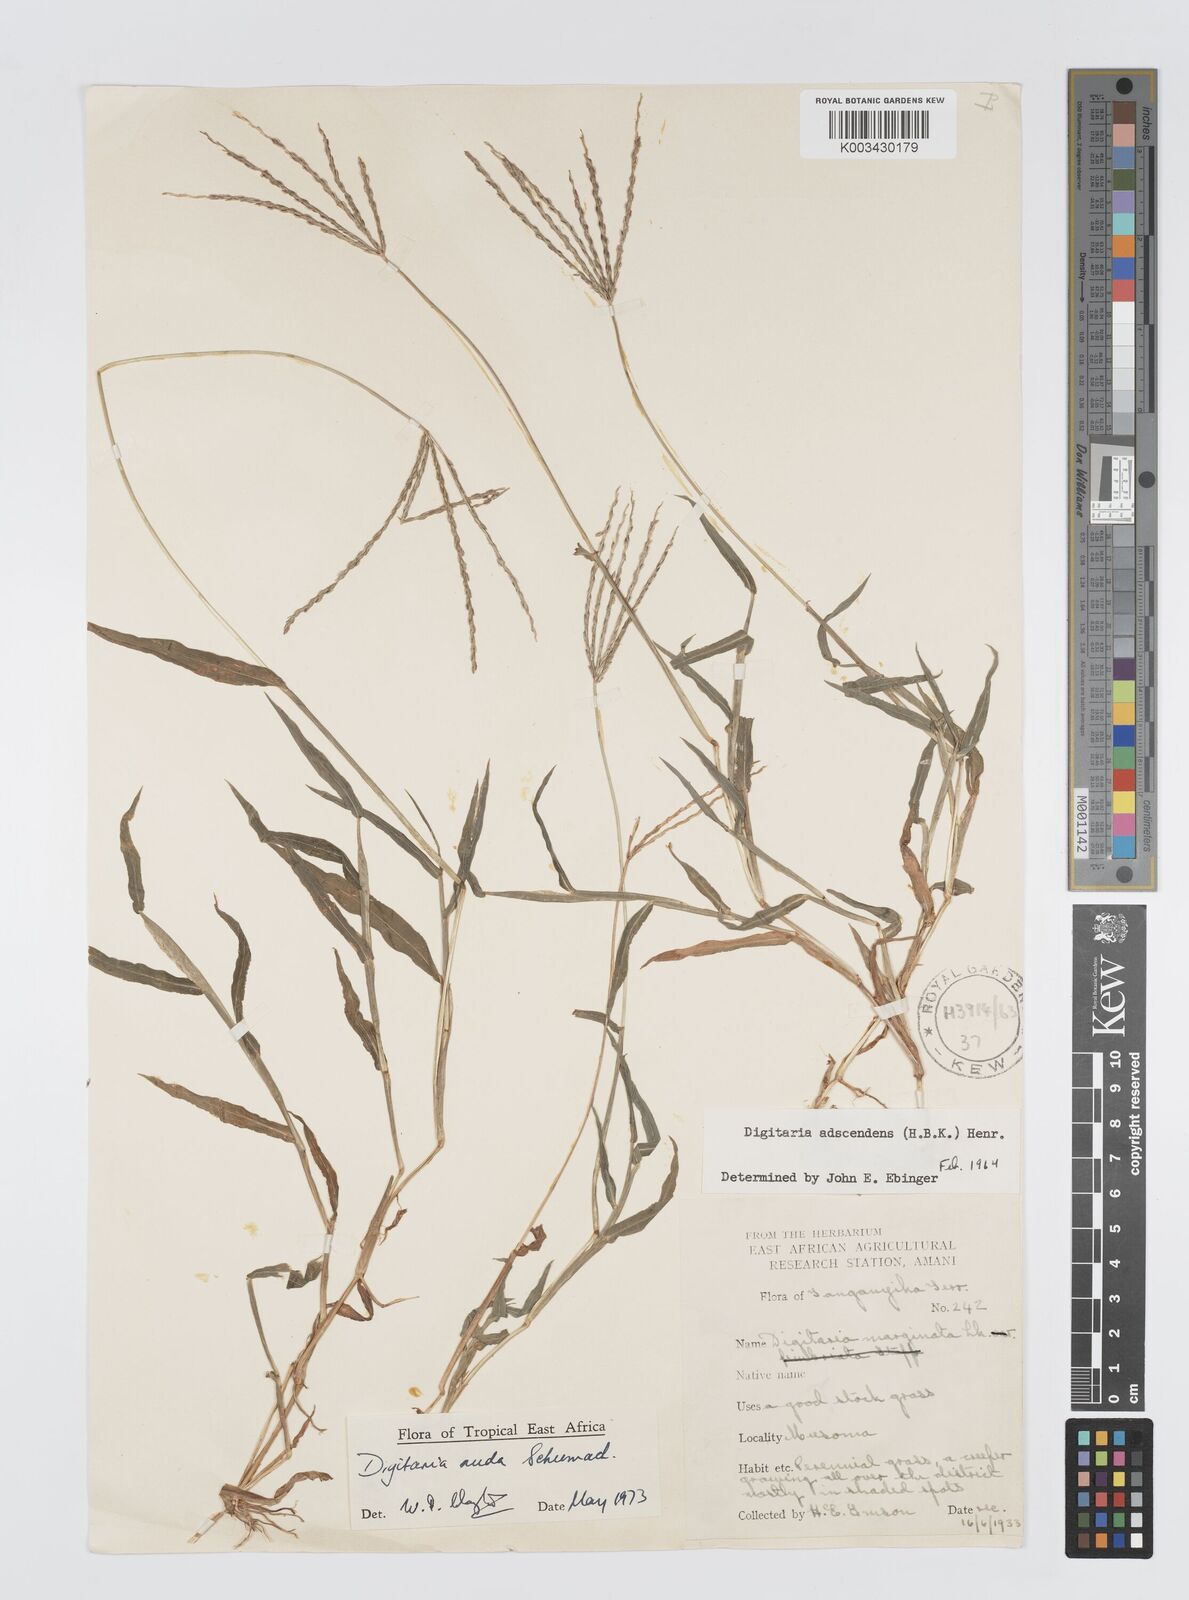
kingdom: Plantae
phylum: Tracheophyta
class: Liliopsida
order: Poales
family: Poaceae
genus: Digitaria
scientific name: Digitaria nuda
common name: Naked crabgrass
